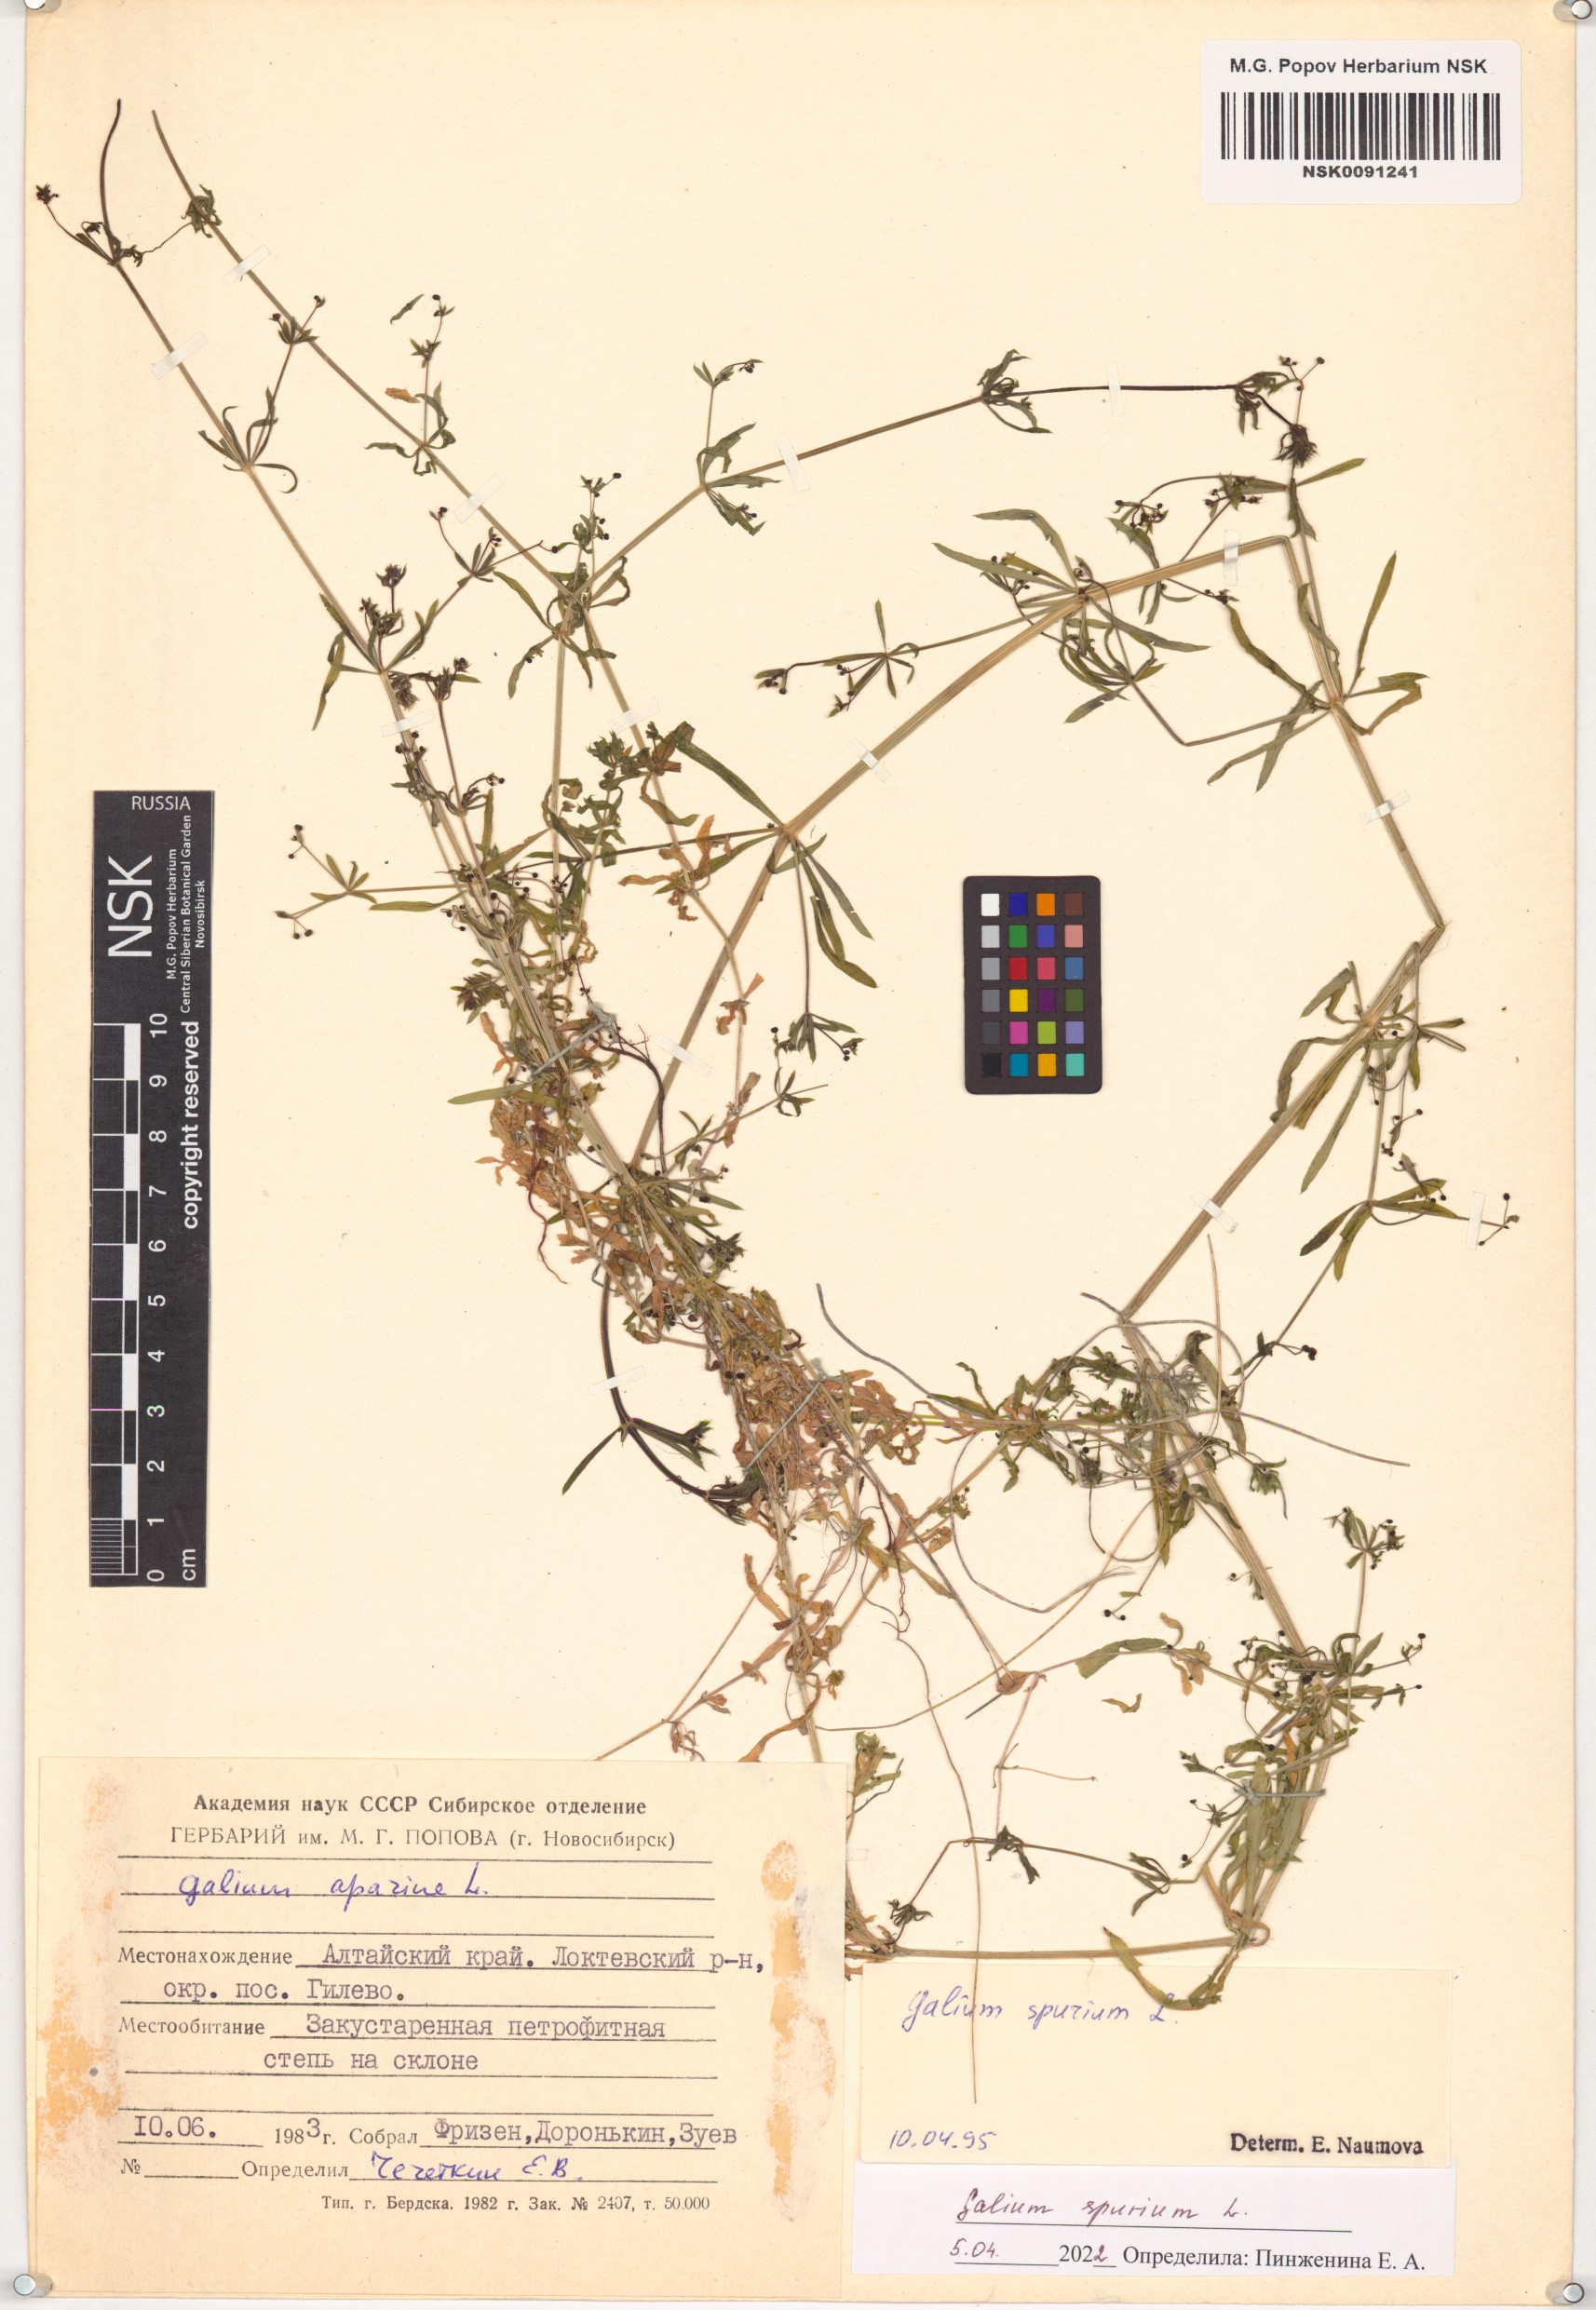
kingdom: Plantae
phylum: Tracheophyta
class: Magnoliopsida
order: Gentianales
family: Rubiaceae
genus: Galium
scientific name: Galium spurium
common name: False cleavers
